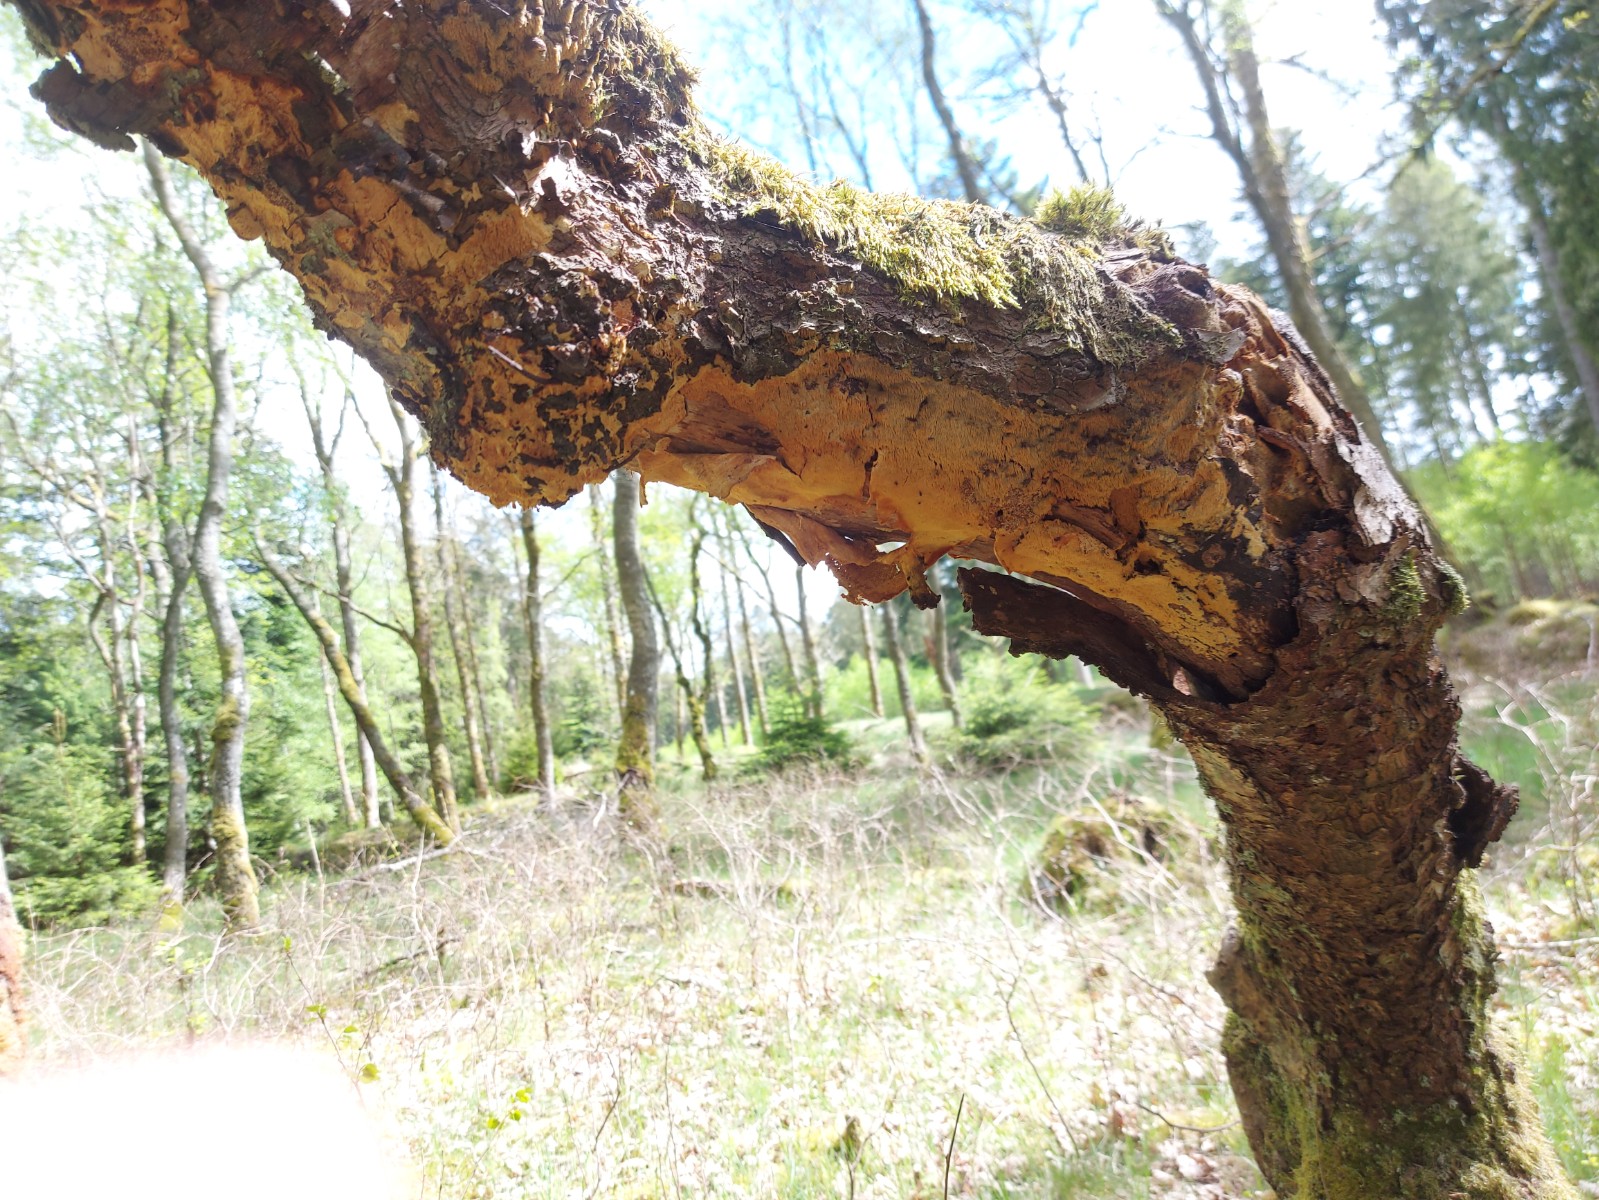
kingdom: Fungi
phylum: Basidiomycota
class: Agaricomycetes
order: Corticiales
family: Corticiaceae
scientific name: Corticiaceae
